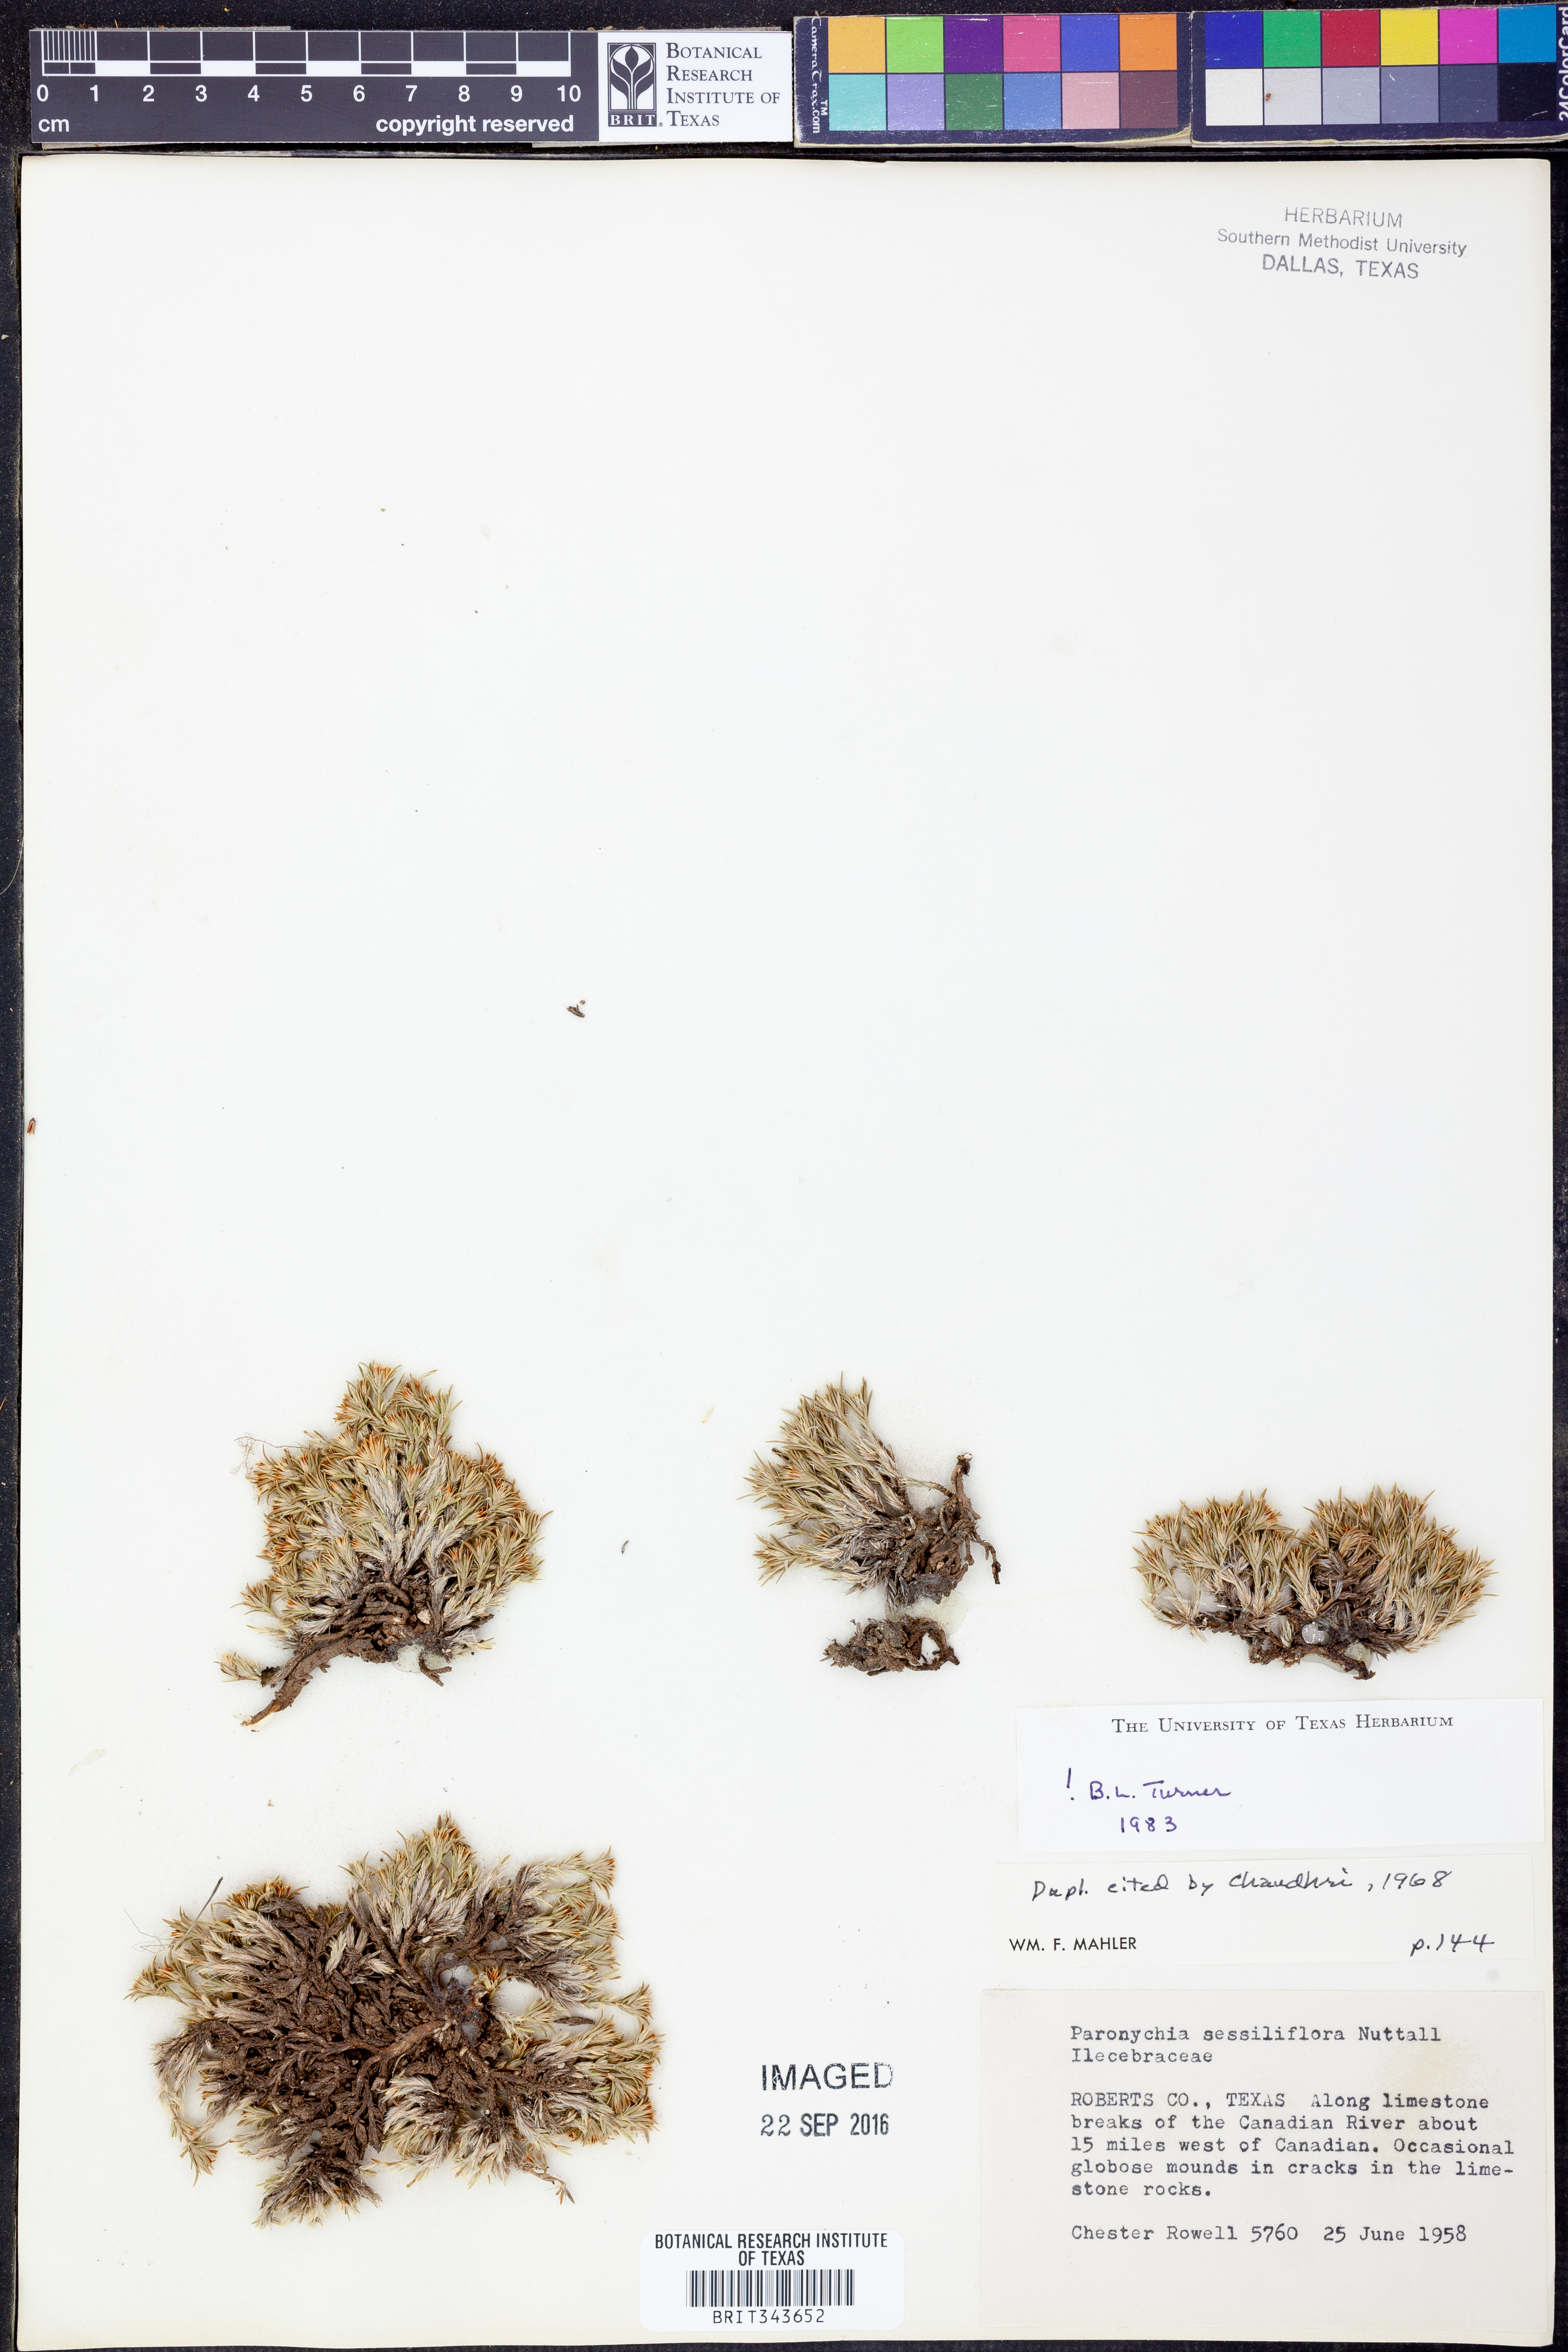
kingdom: Plantae
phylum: Tracheophyta
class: Magnoliopsida
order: Caryophyllales
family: Caryophyllaceae
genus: Paronychia
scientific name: Paronychia sessiliflora
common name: Creeping nailwort
